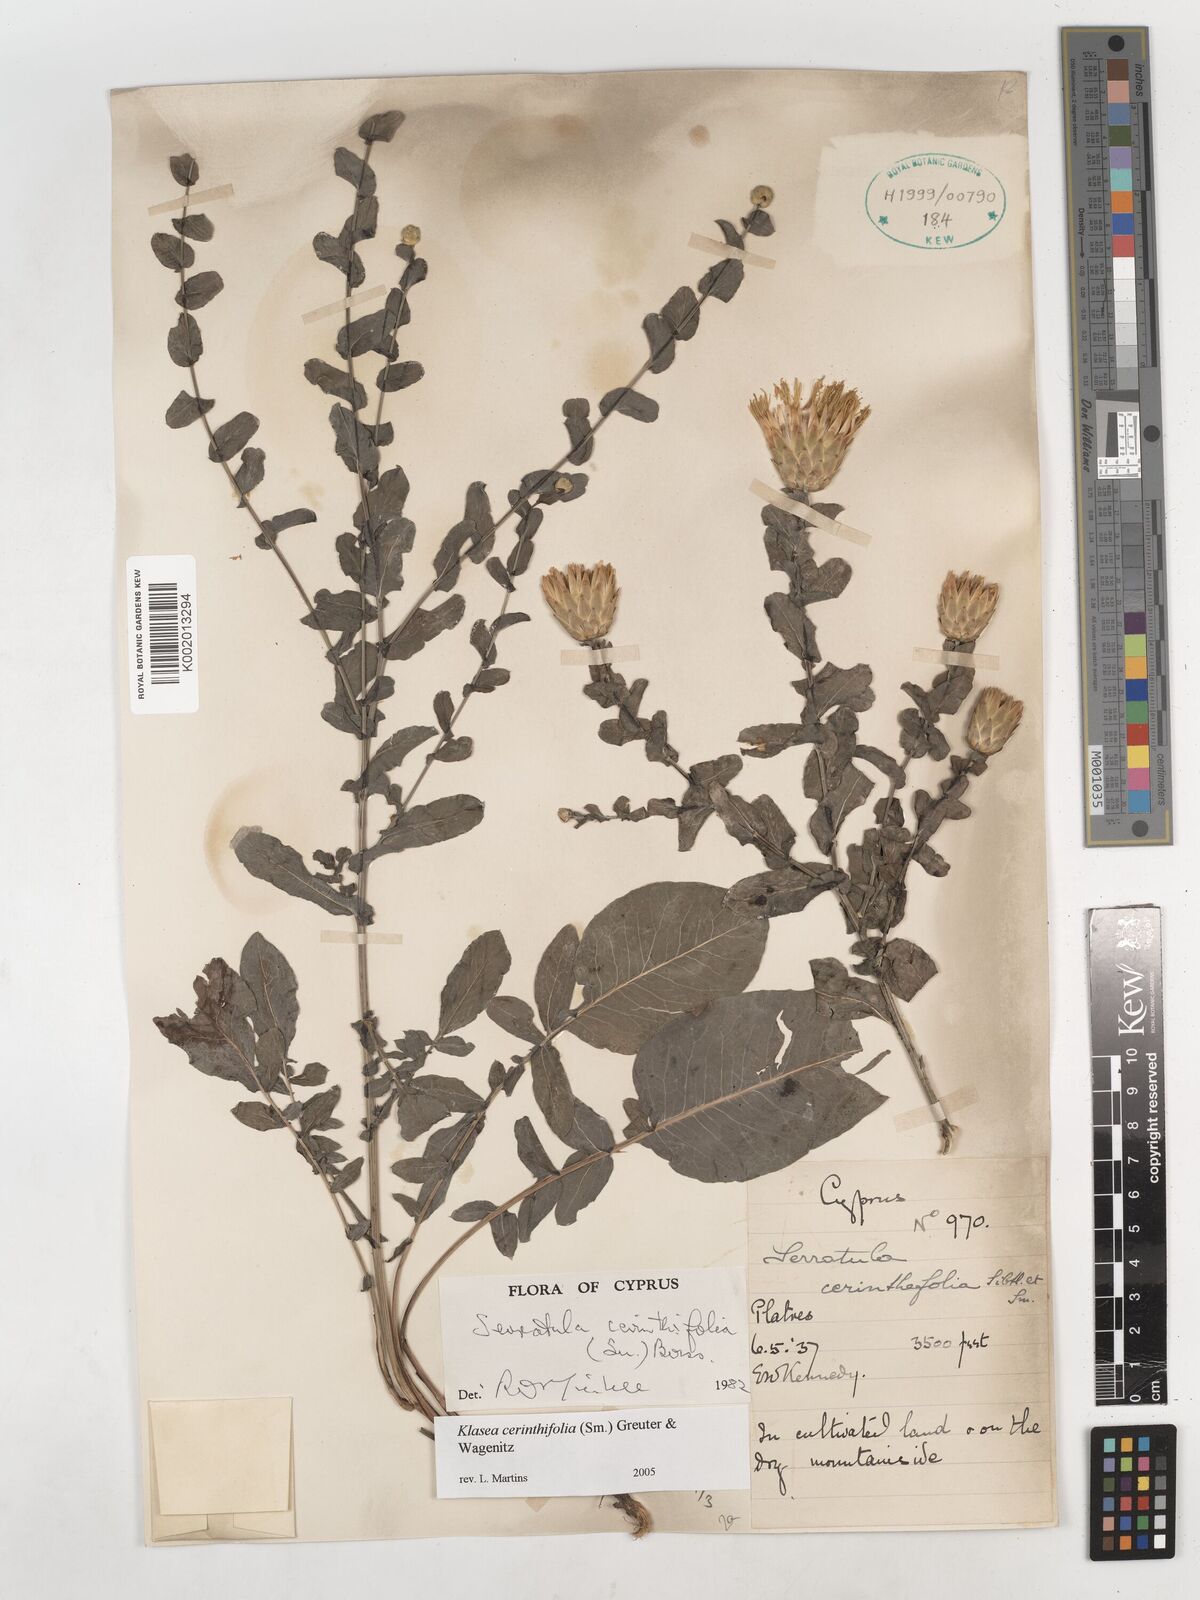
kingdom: Plantae
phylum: Tracheophyta
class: Magnoliopsida
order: Asterales
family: Asteraceae
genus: Klasea
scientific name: Klasea cerinthifolia
